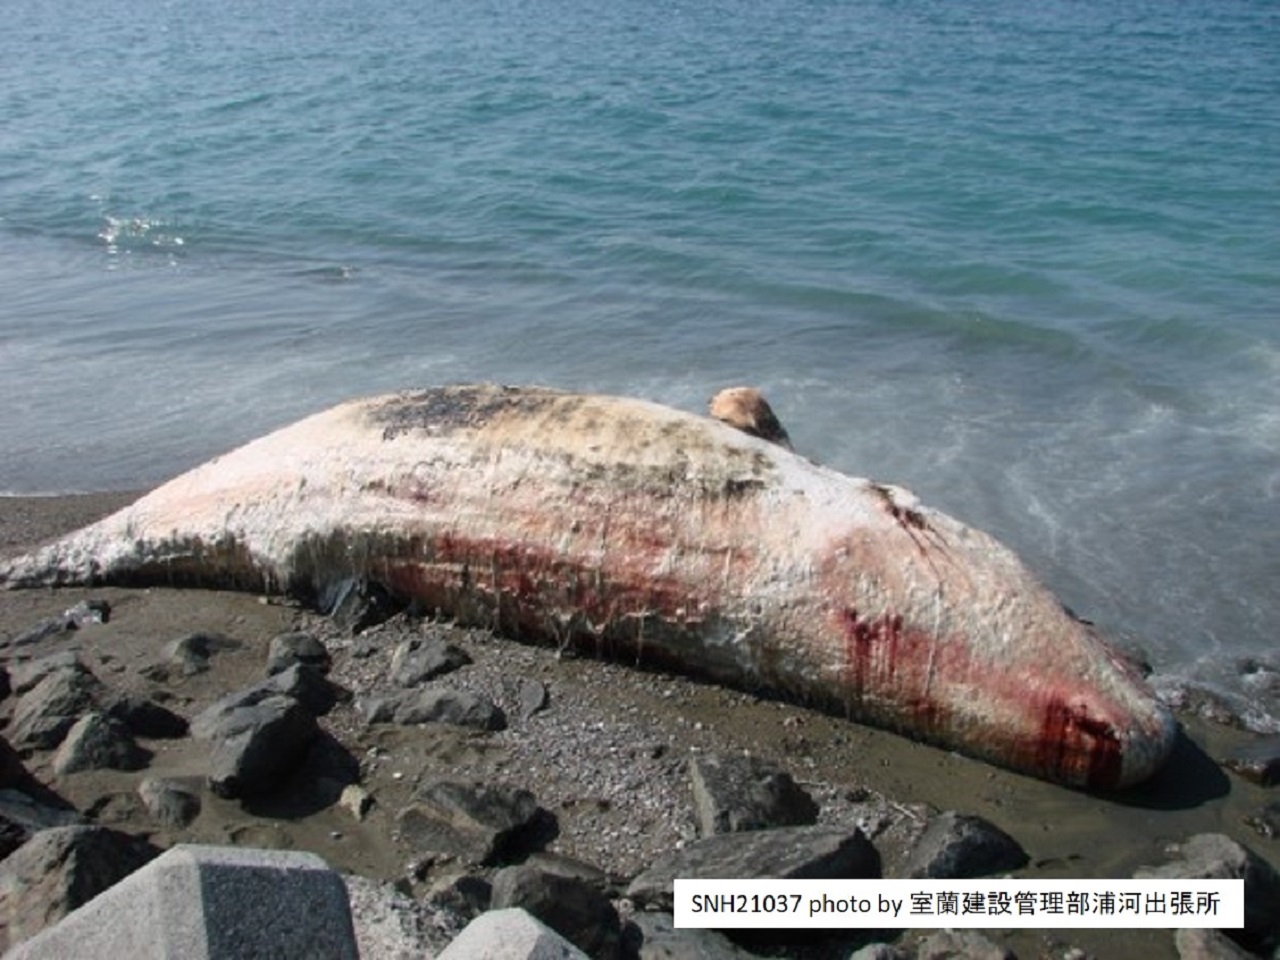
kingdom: Animalia
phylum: Chordata
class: Mammalia
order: Cetacea
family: Physeteridae
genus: Physeter
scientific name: Physeter macrocephalus
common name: Sperm whale
